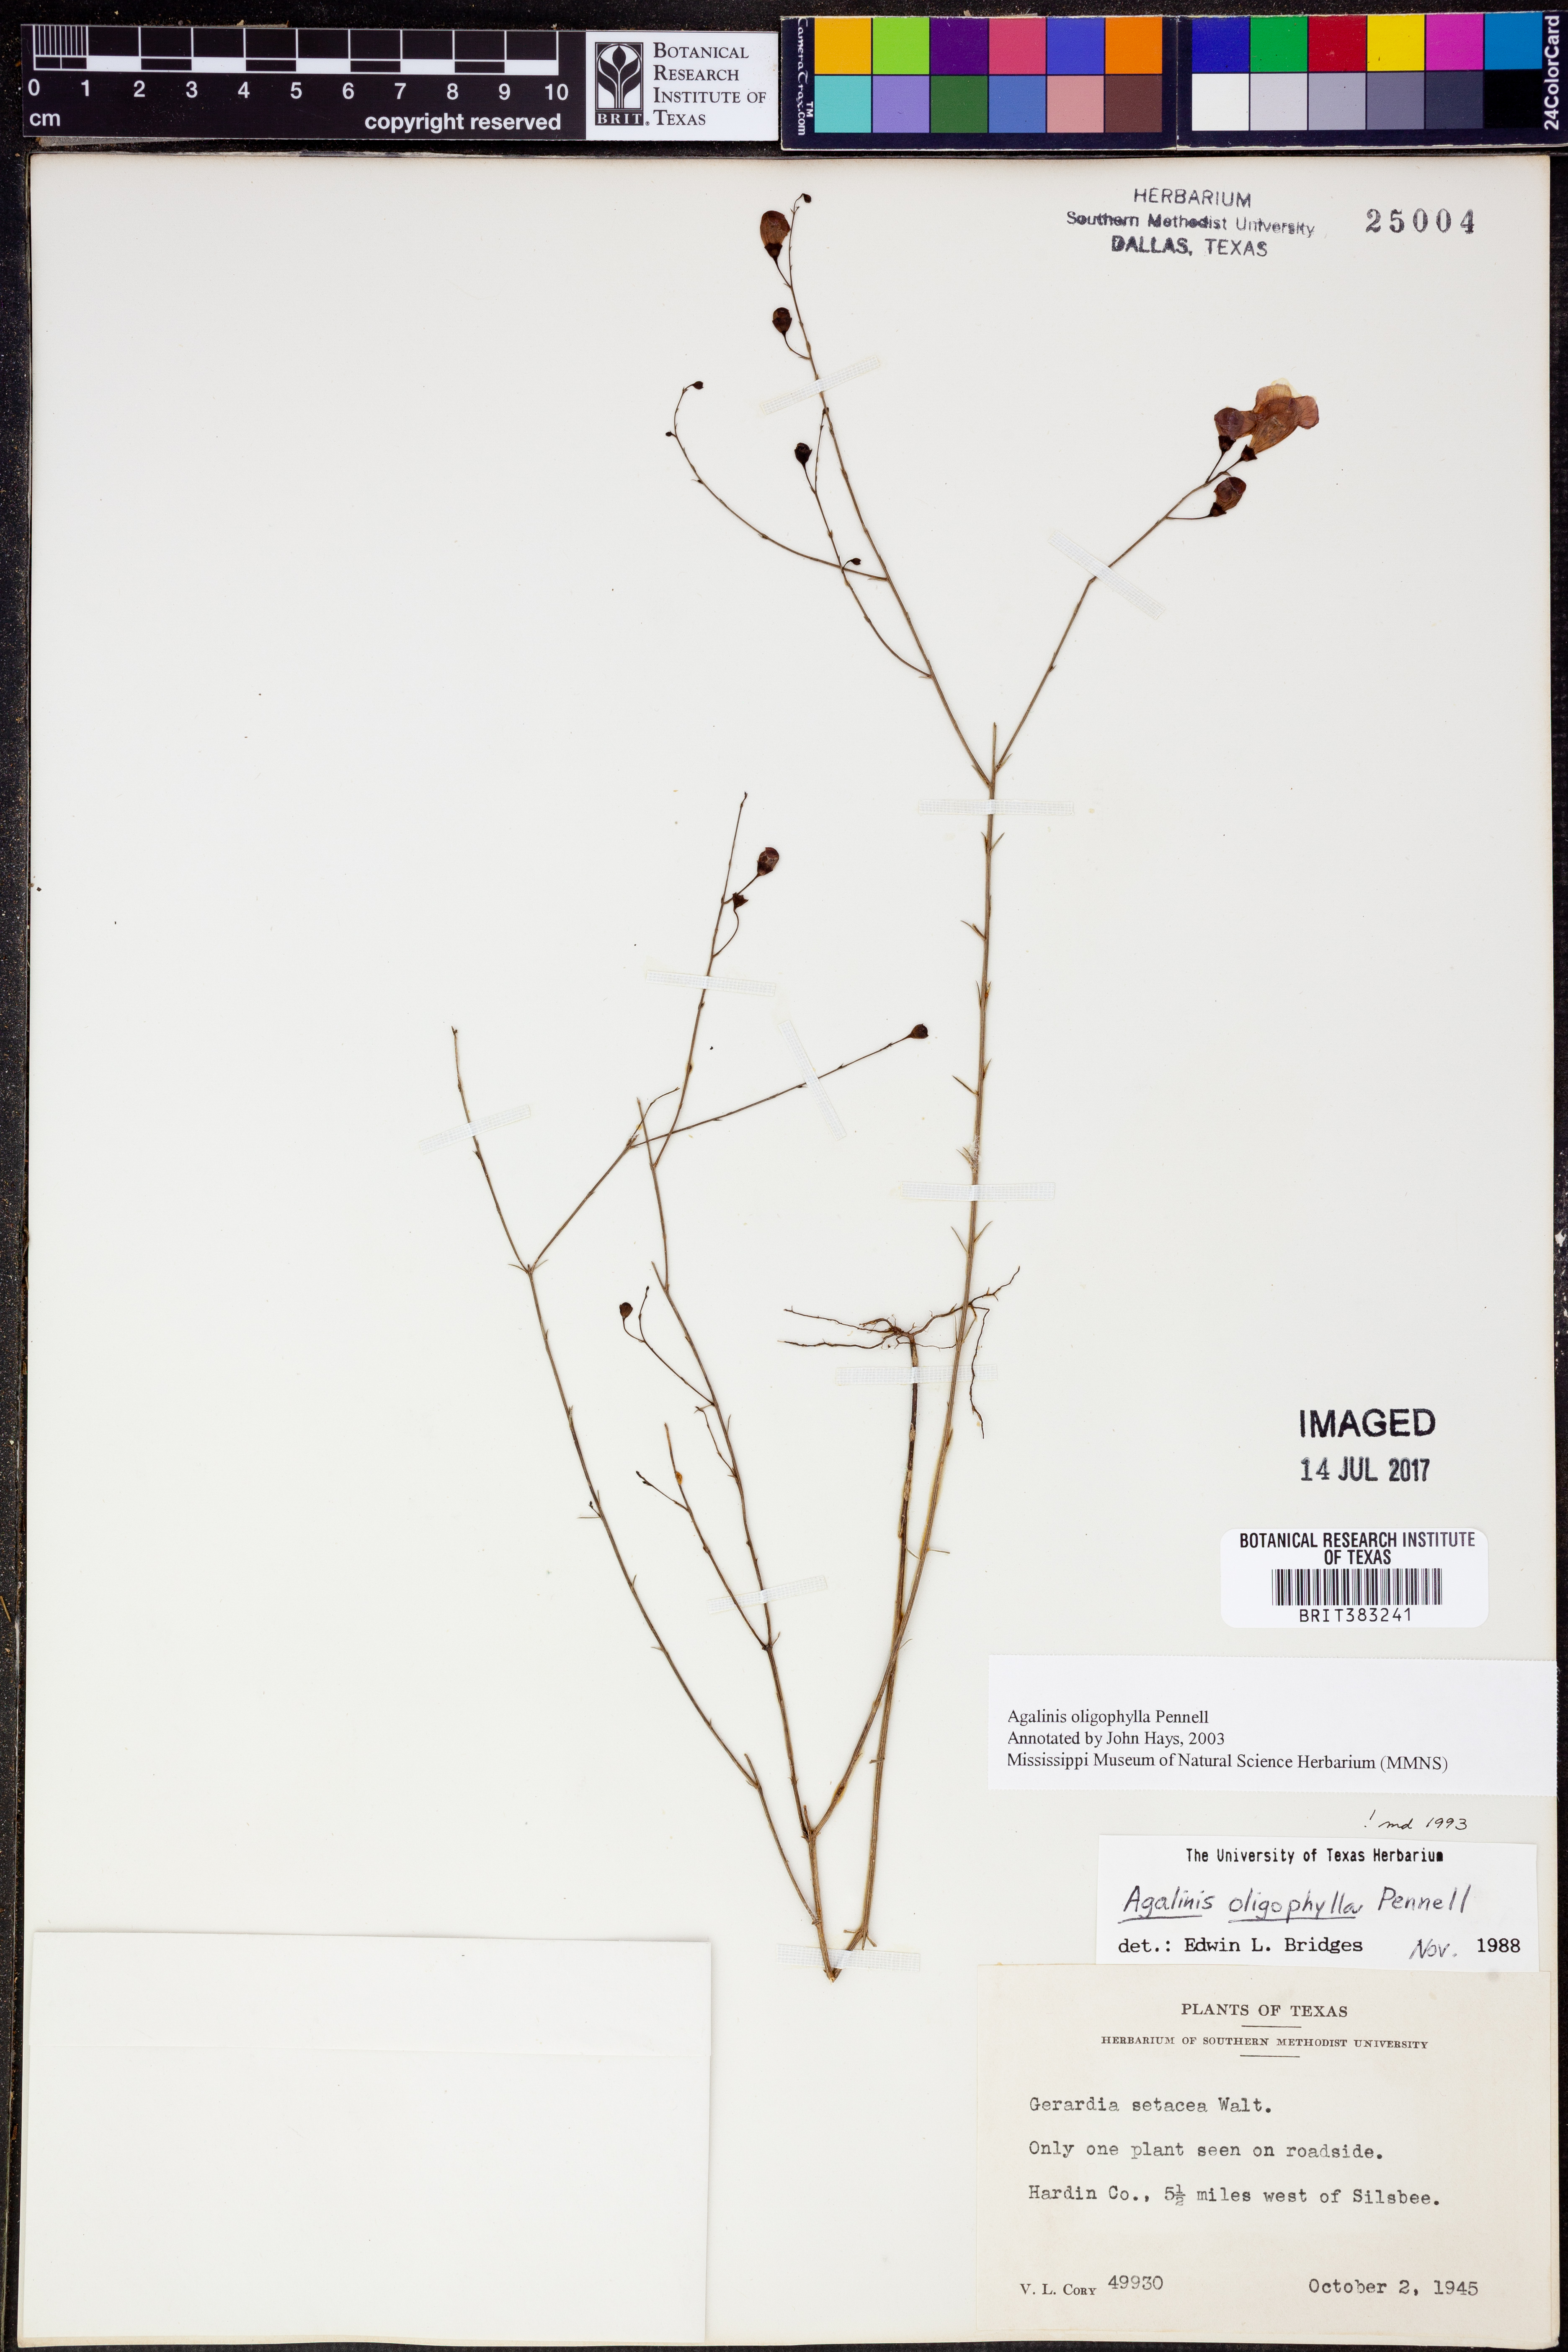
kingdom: Plantae
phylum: Tracheophyta
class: Magnoliopsida
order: Lamiales
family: Orobanchaceae
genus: Agalinis
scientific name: Agalinis oligophylla
